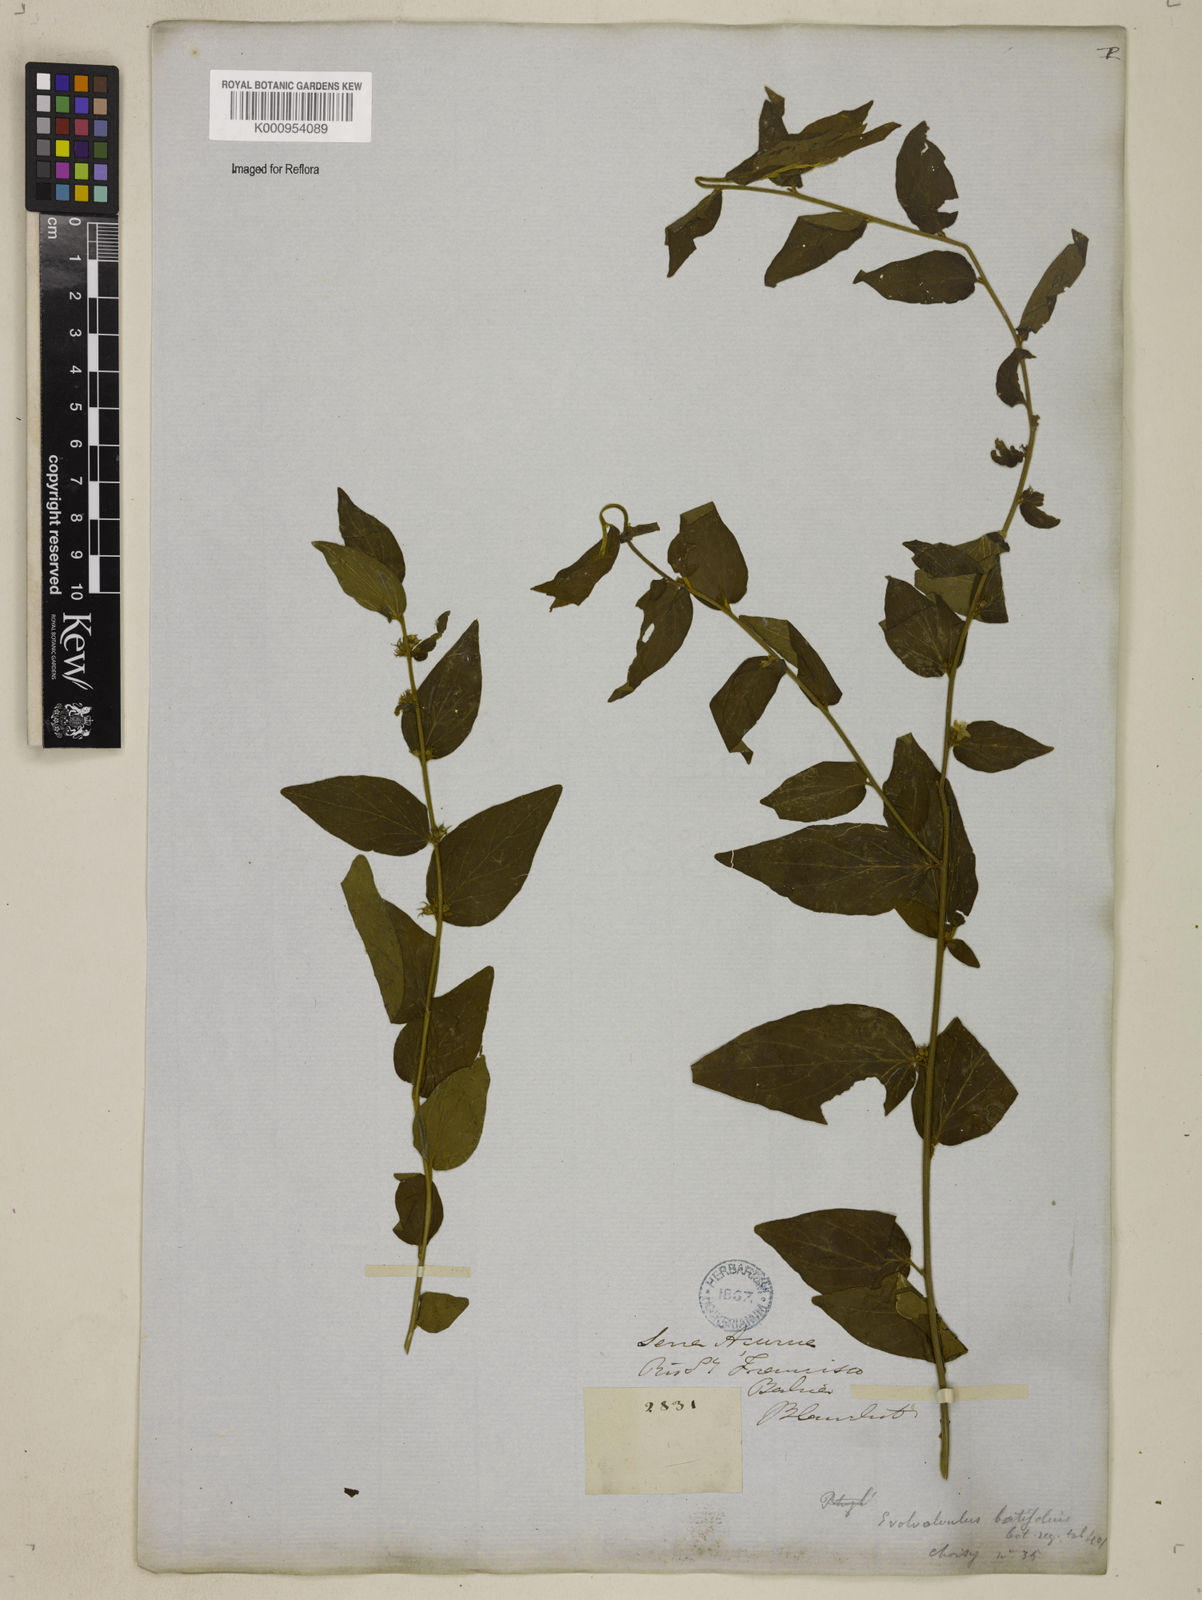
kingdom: Plantae
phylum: Tracheophyta
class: Magnoliopsida
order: Solanales
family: Convolvulaceae
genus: Evolvulus
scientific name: Evolvulus latifolius
